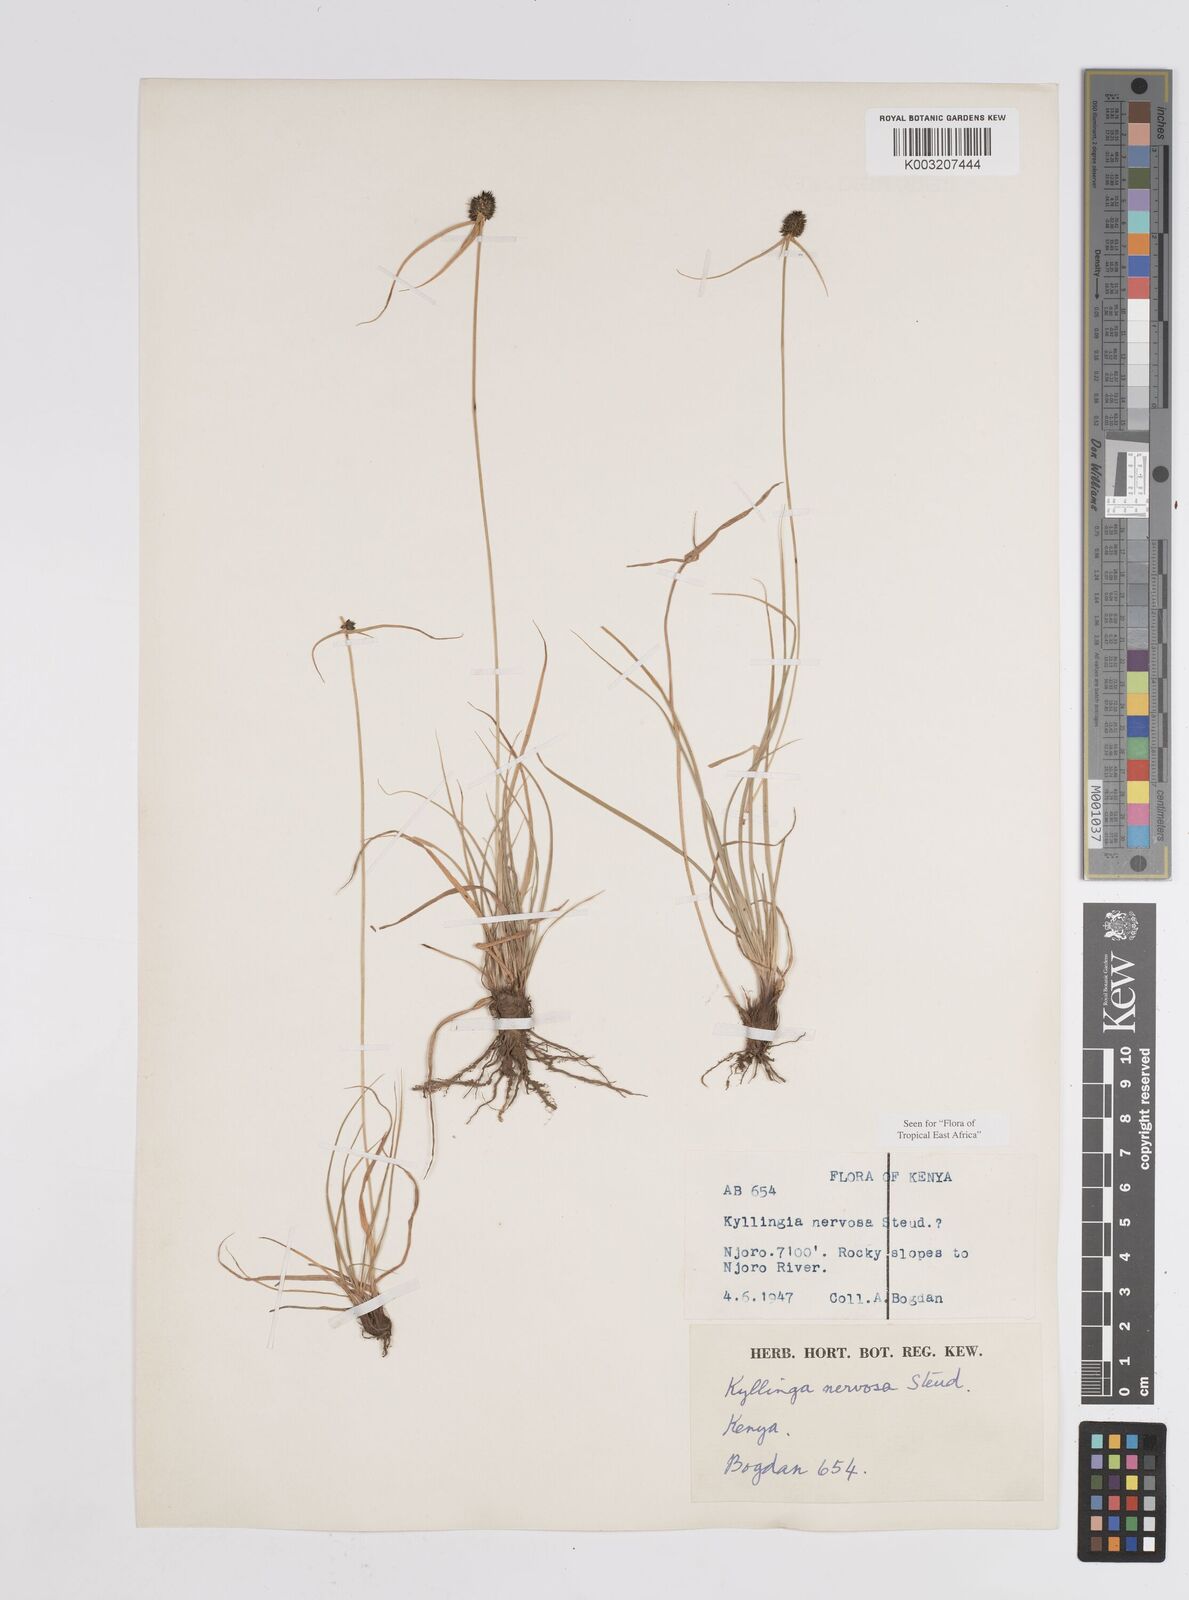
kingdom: Plantae
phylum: Tracheophyta
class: Liliopsida
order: Poales
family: Cyperaceae
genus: Cyperus
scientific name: Cyperus
